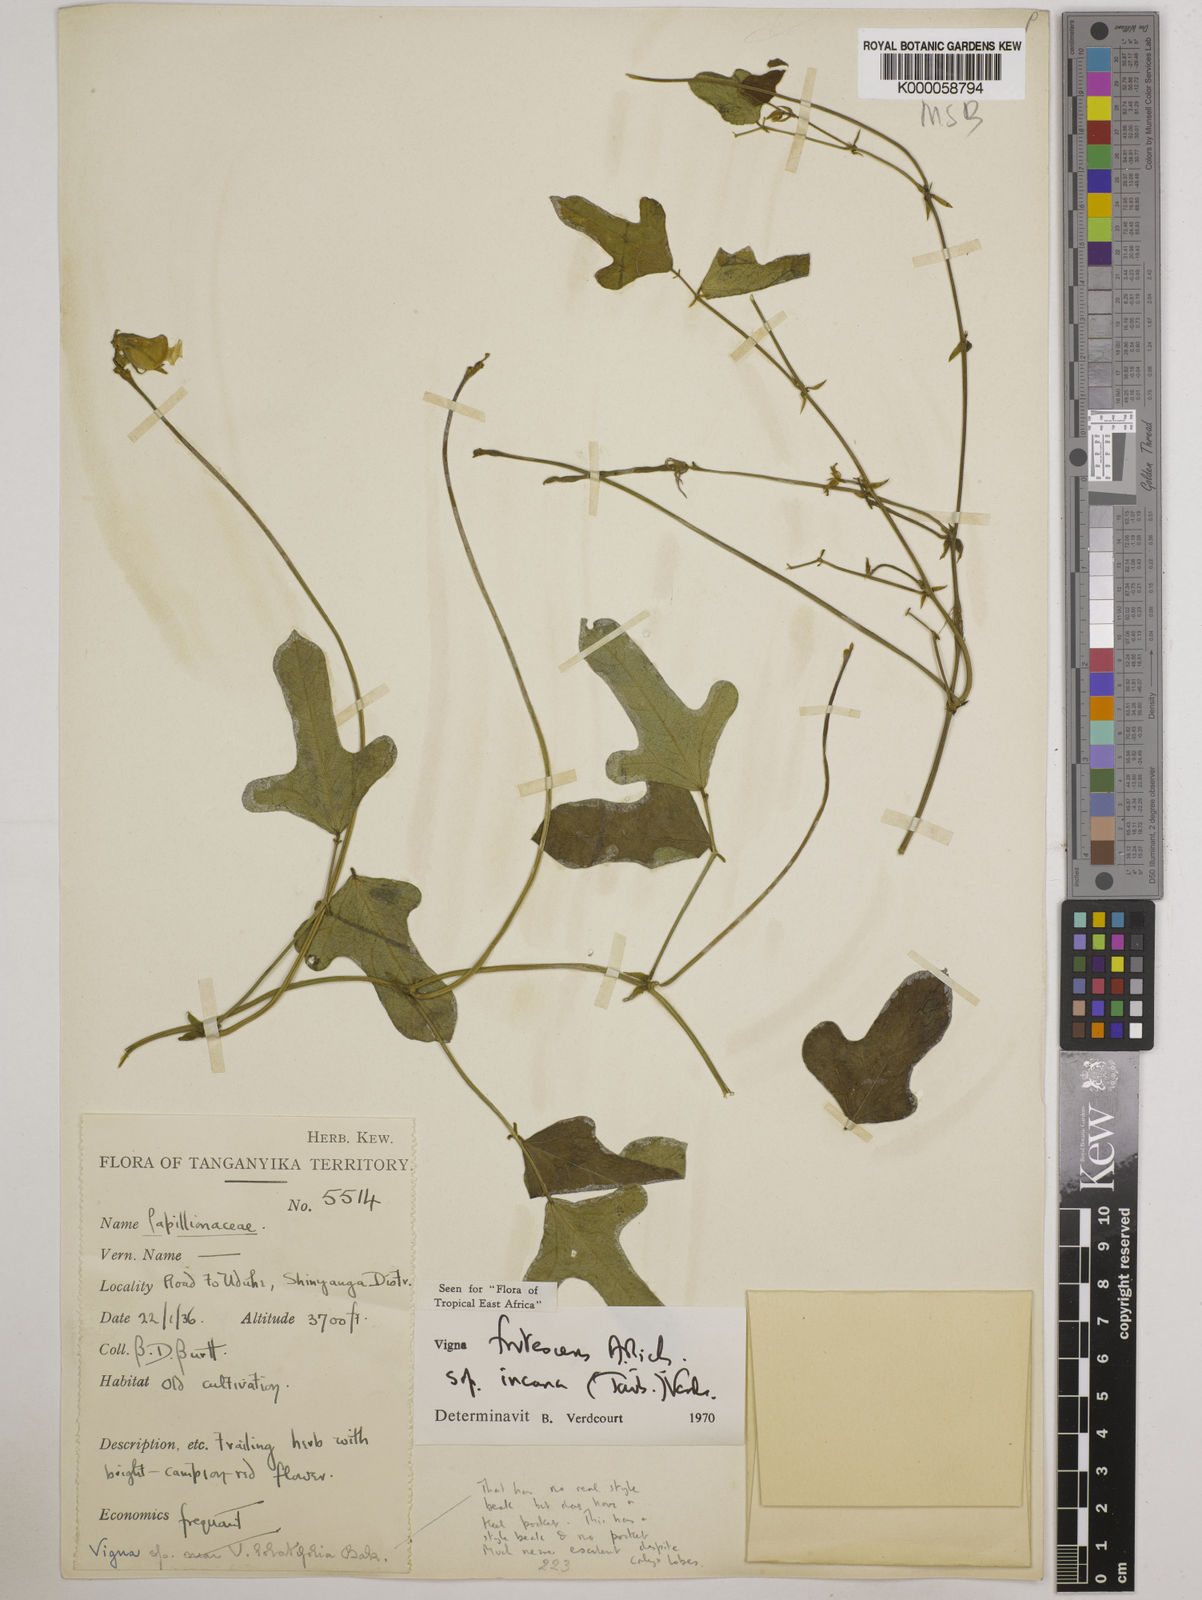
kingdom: Plantae
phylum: Tracheophyta
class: Magnoliopsida
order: Fabales
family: Fabaceae
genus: Vigna
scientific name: Vigna
